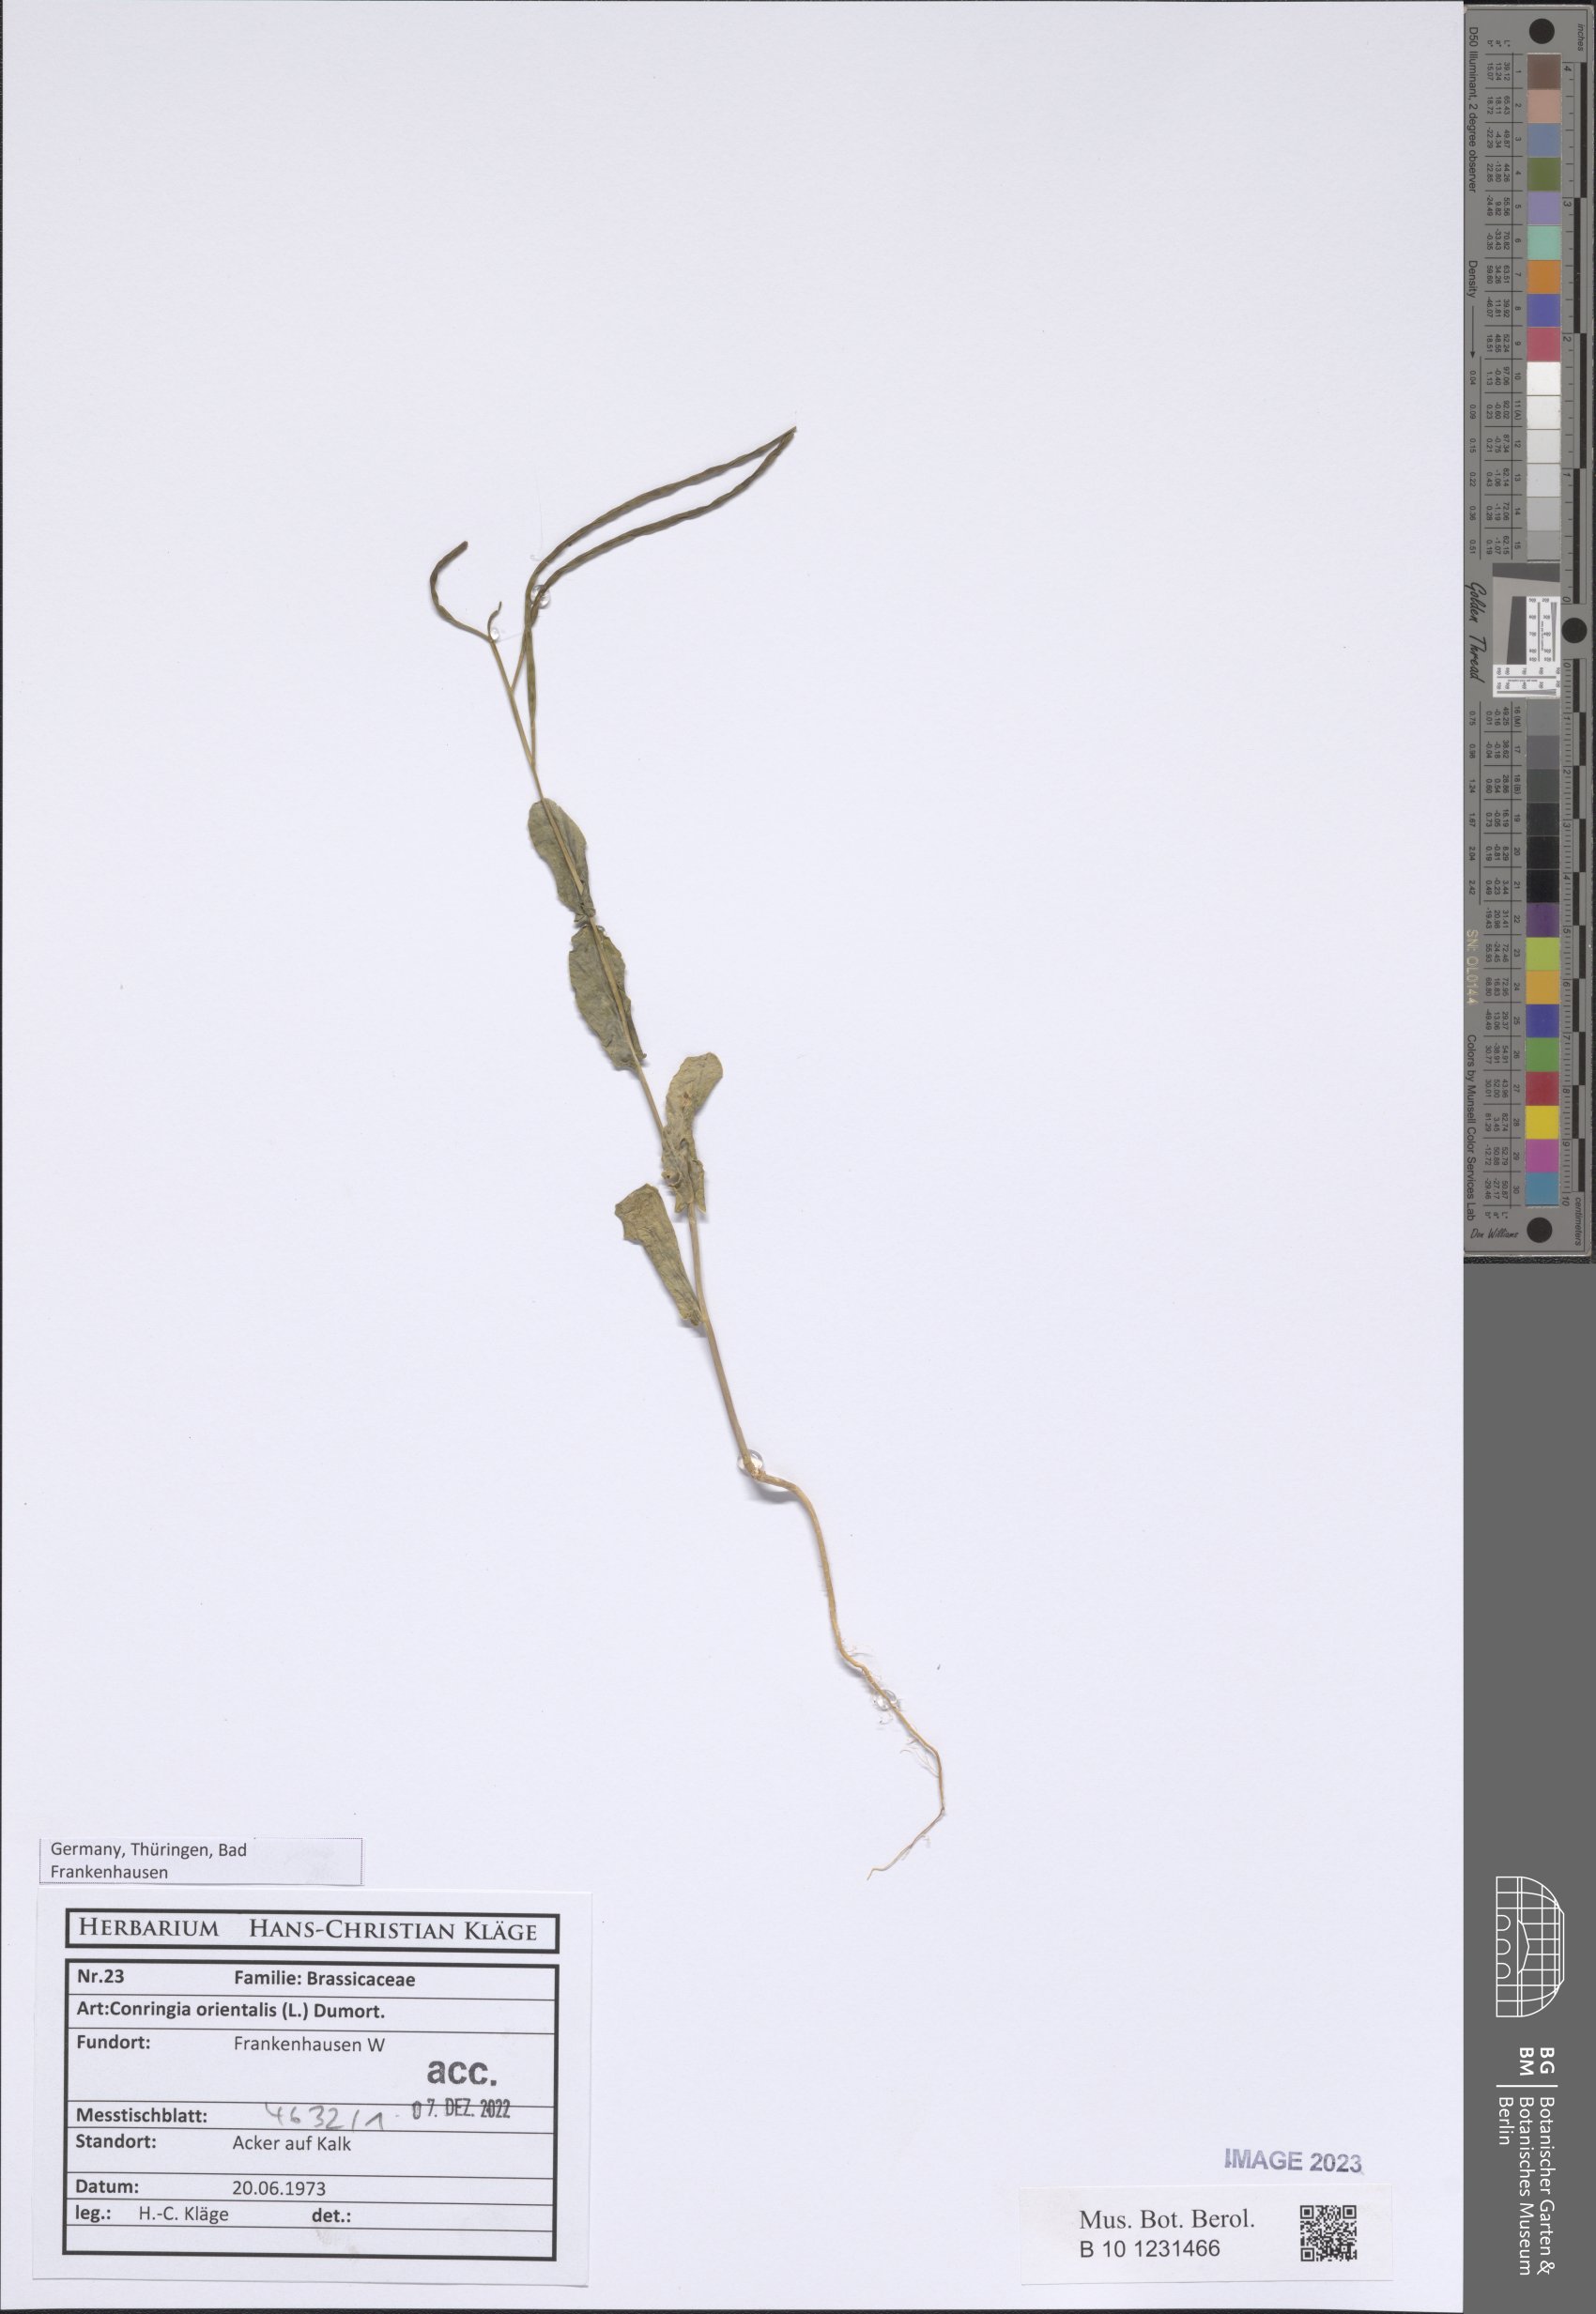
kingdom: Plantae
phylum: Tracheophyta
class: Magnoliopsida
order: Brassicales
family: Brassicaceae
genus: Conringia
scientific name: Conringia orientalis
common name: Hare's ear mustard
